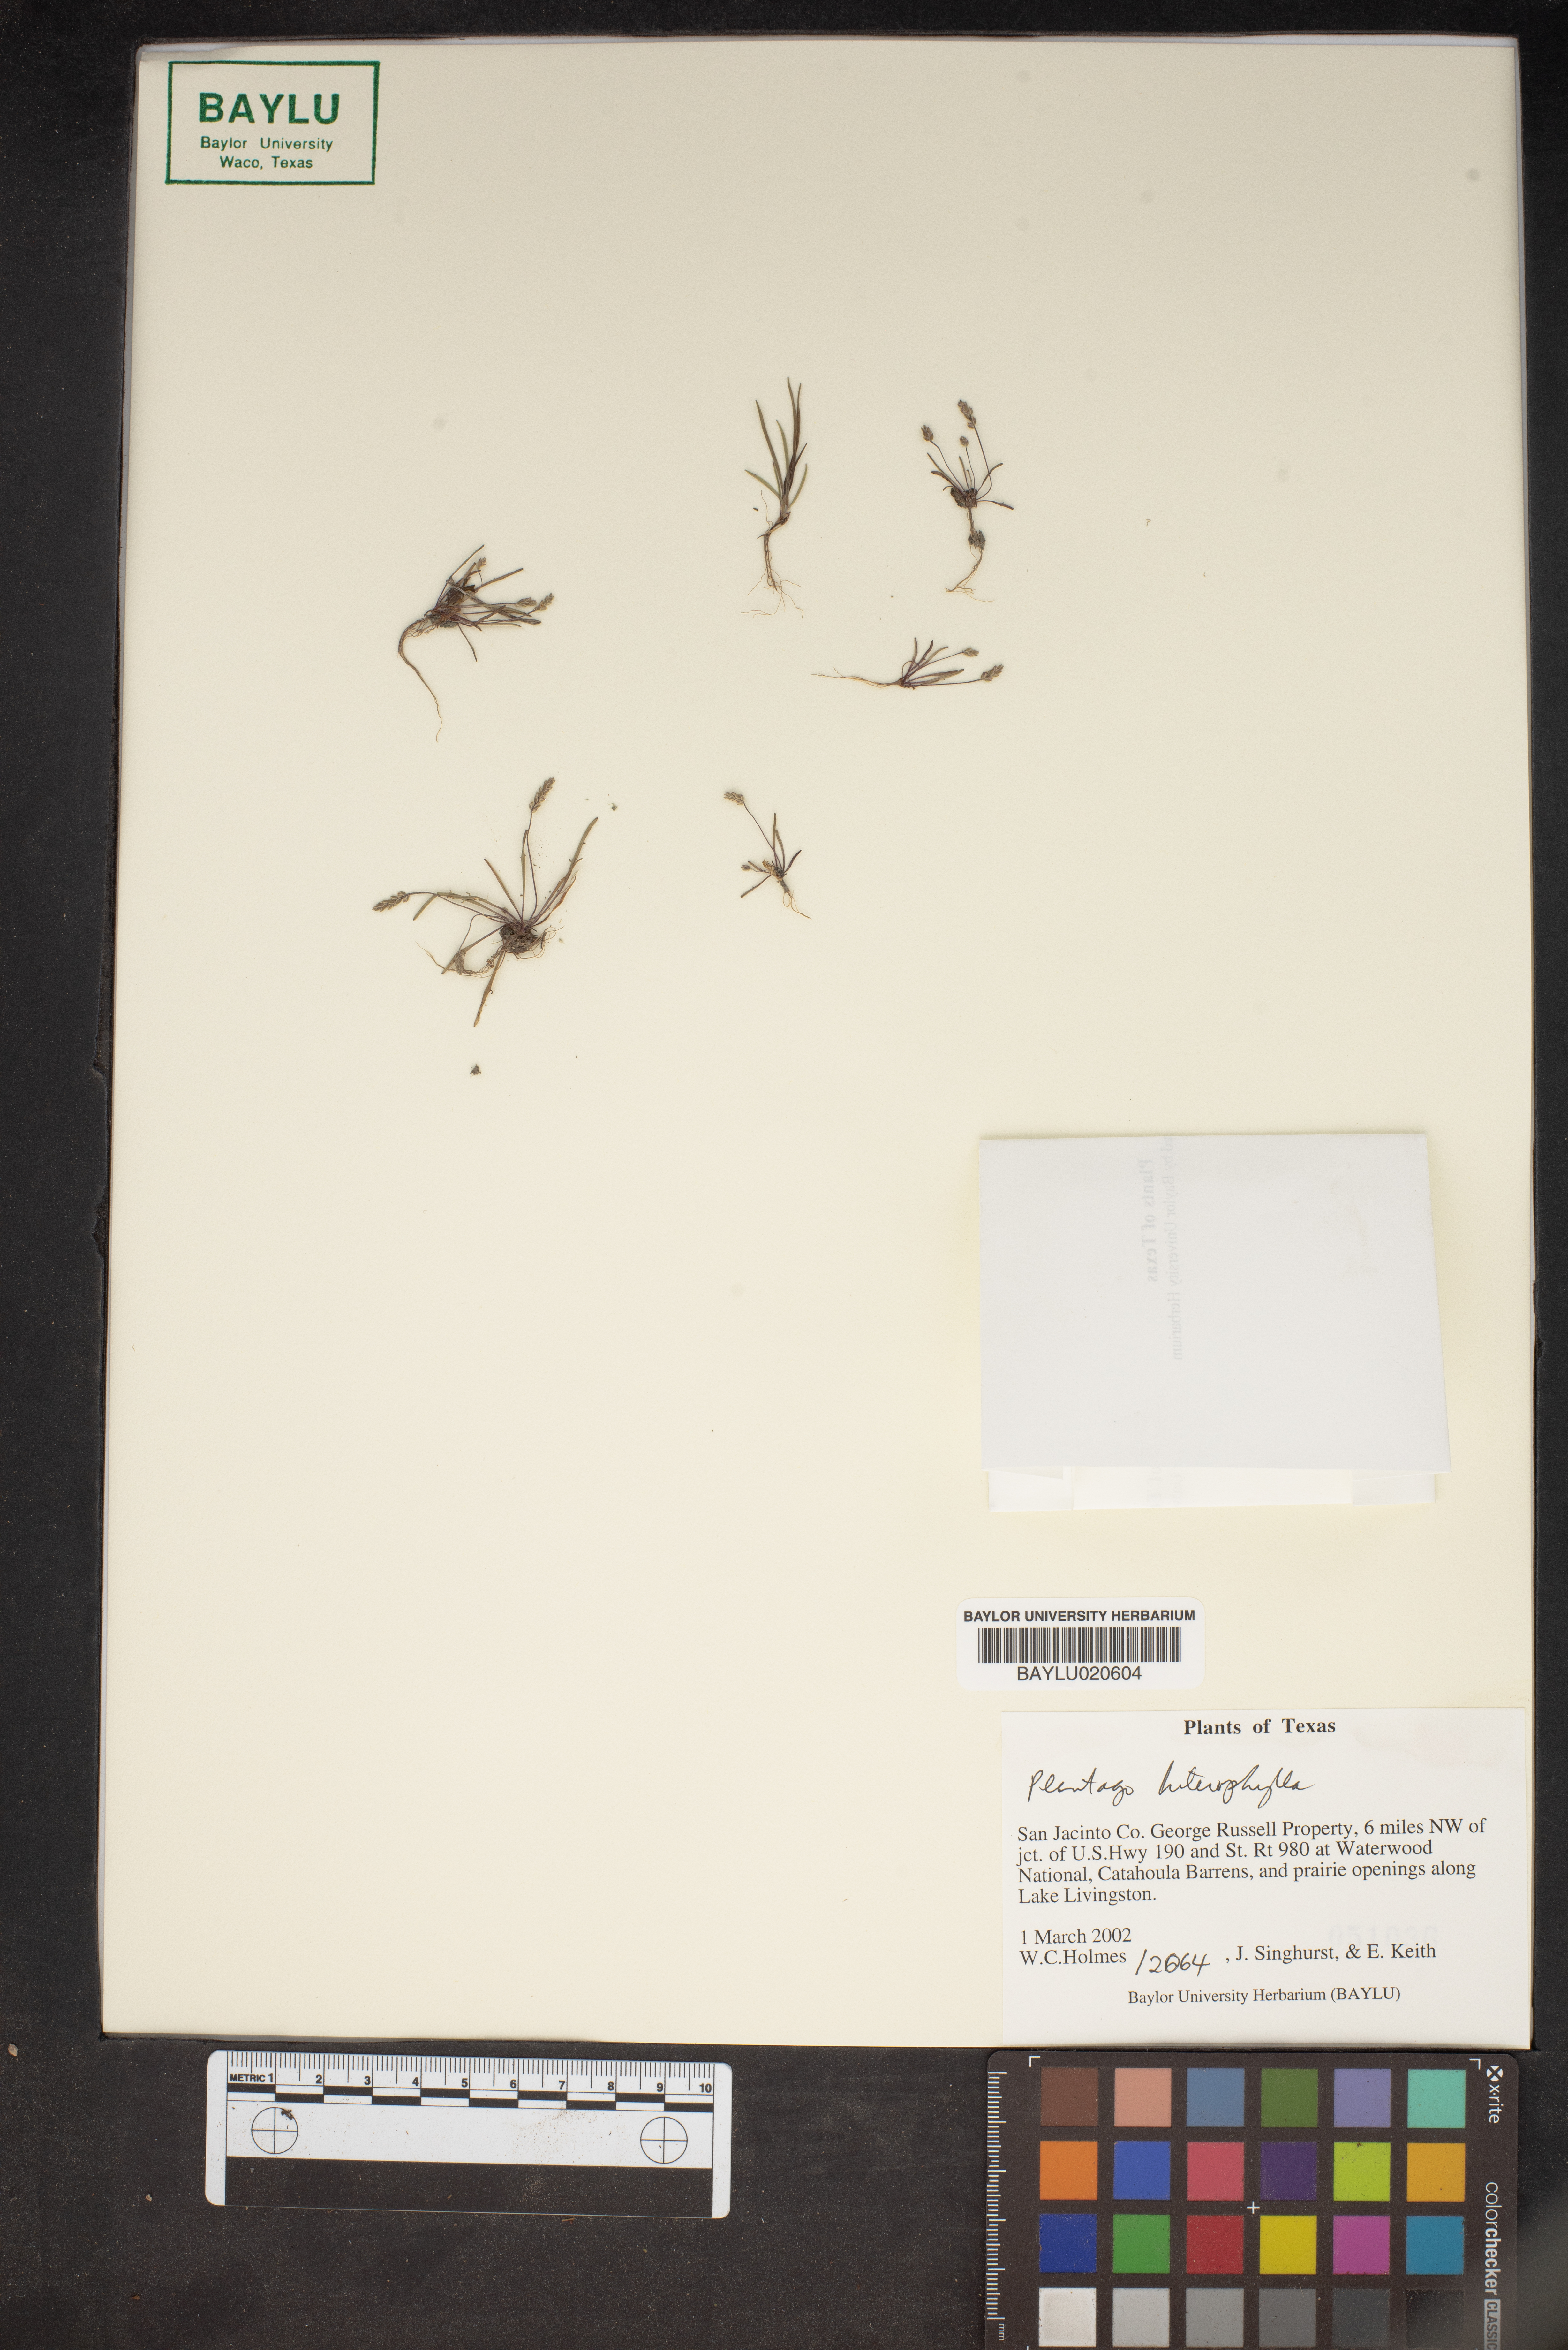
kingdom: Plantae
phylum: Tracheophyta
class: Magnoliopsida
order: Lamiales
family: Plantaginaceae
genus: Plantago
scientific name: Plantago heterophylla
